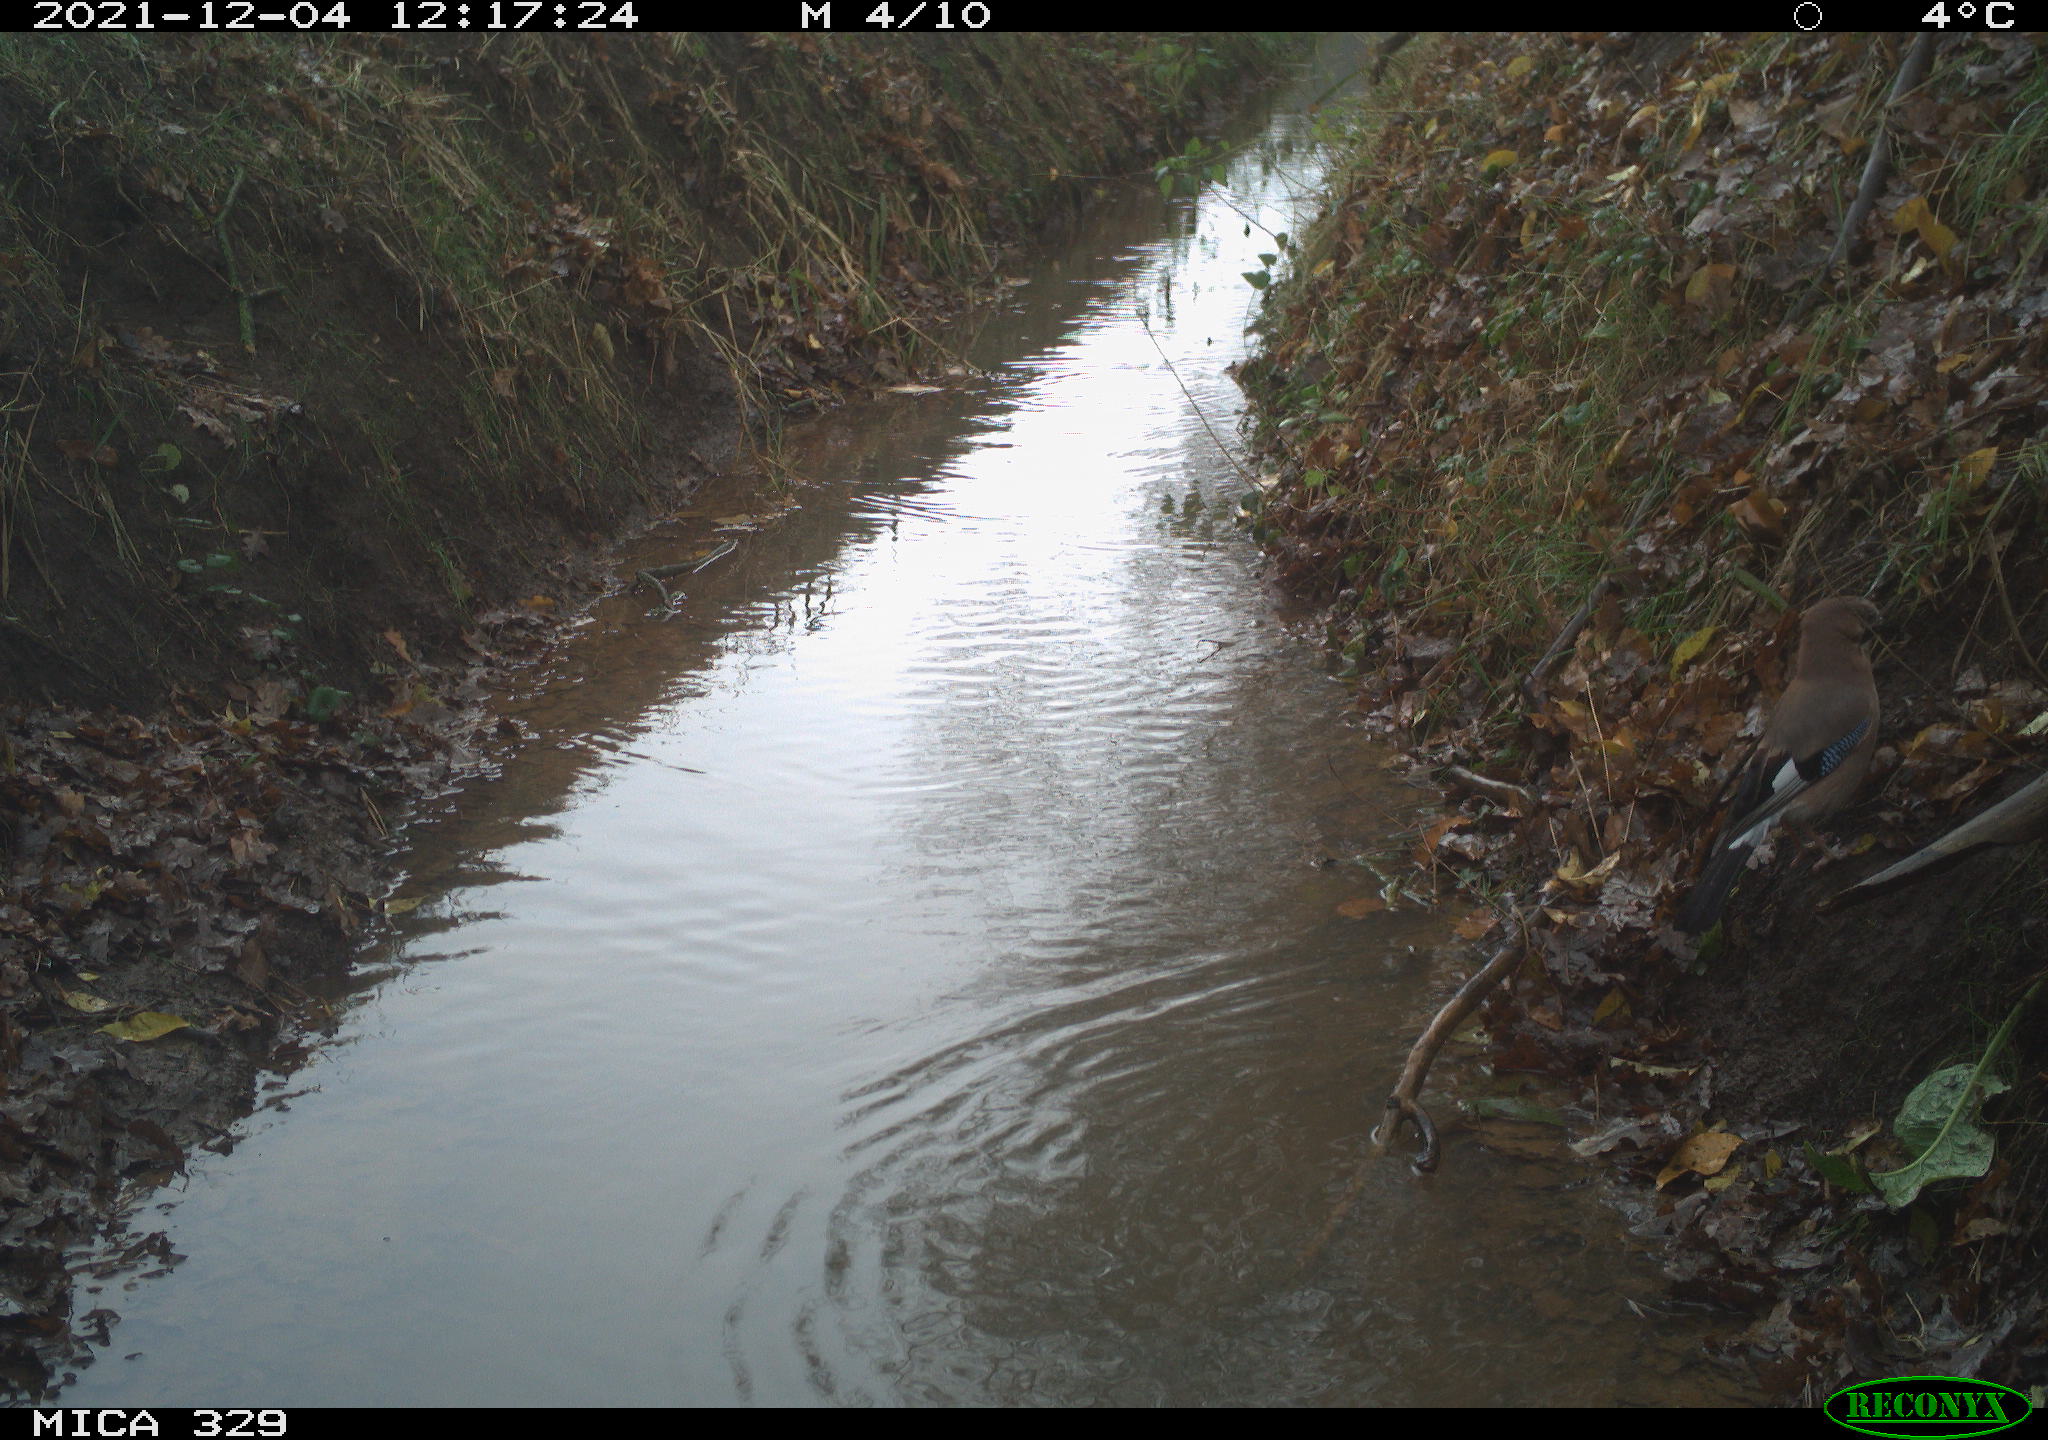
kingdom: Animalia
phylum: Chordata
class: Aves
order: Passeriformes
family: Corvidae
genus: Garrulus
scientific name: Garrulus glandarius
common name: Eurasian jay
